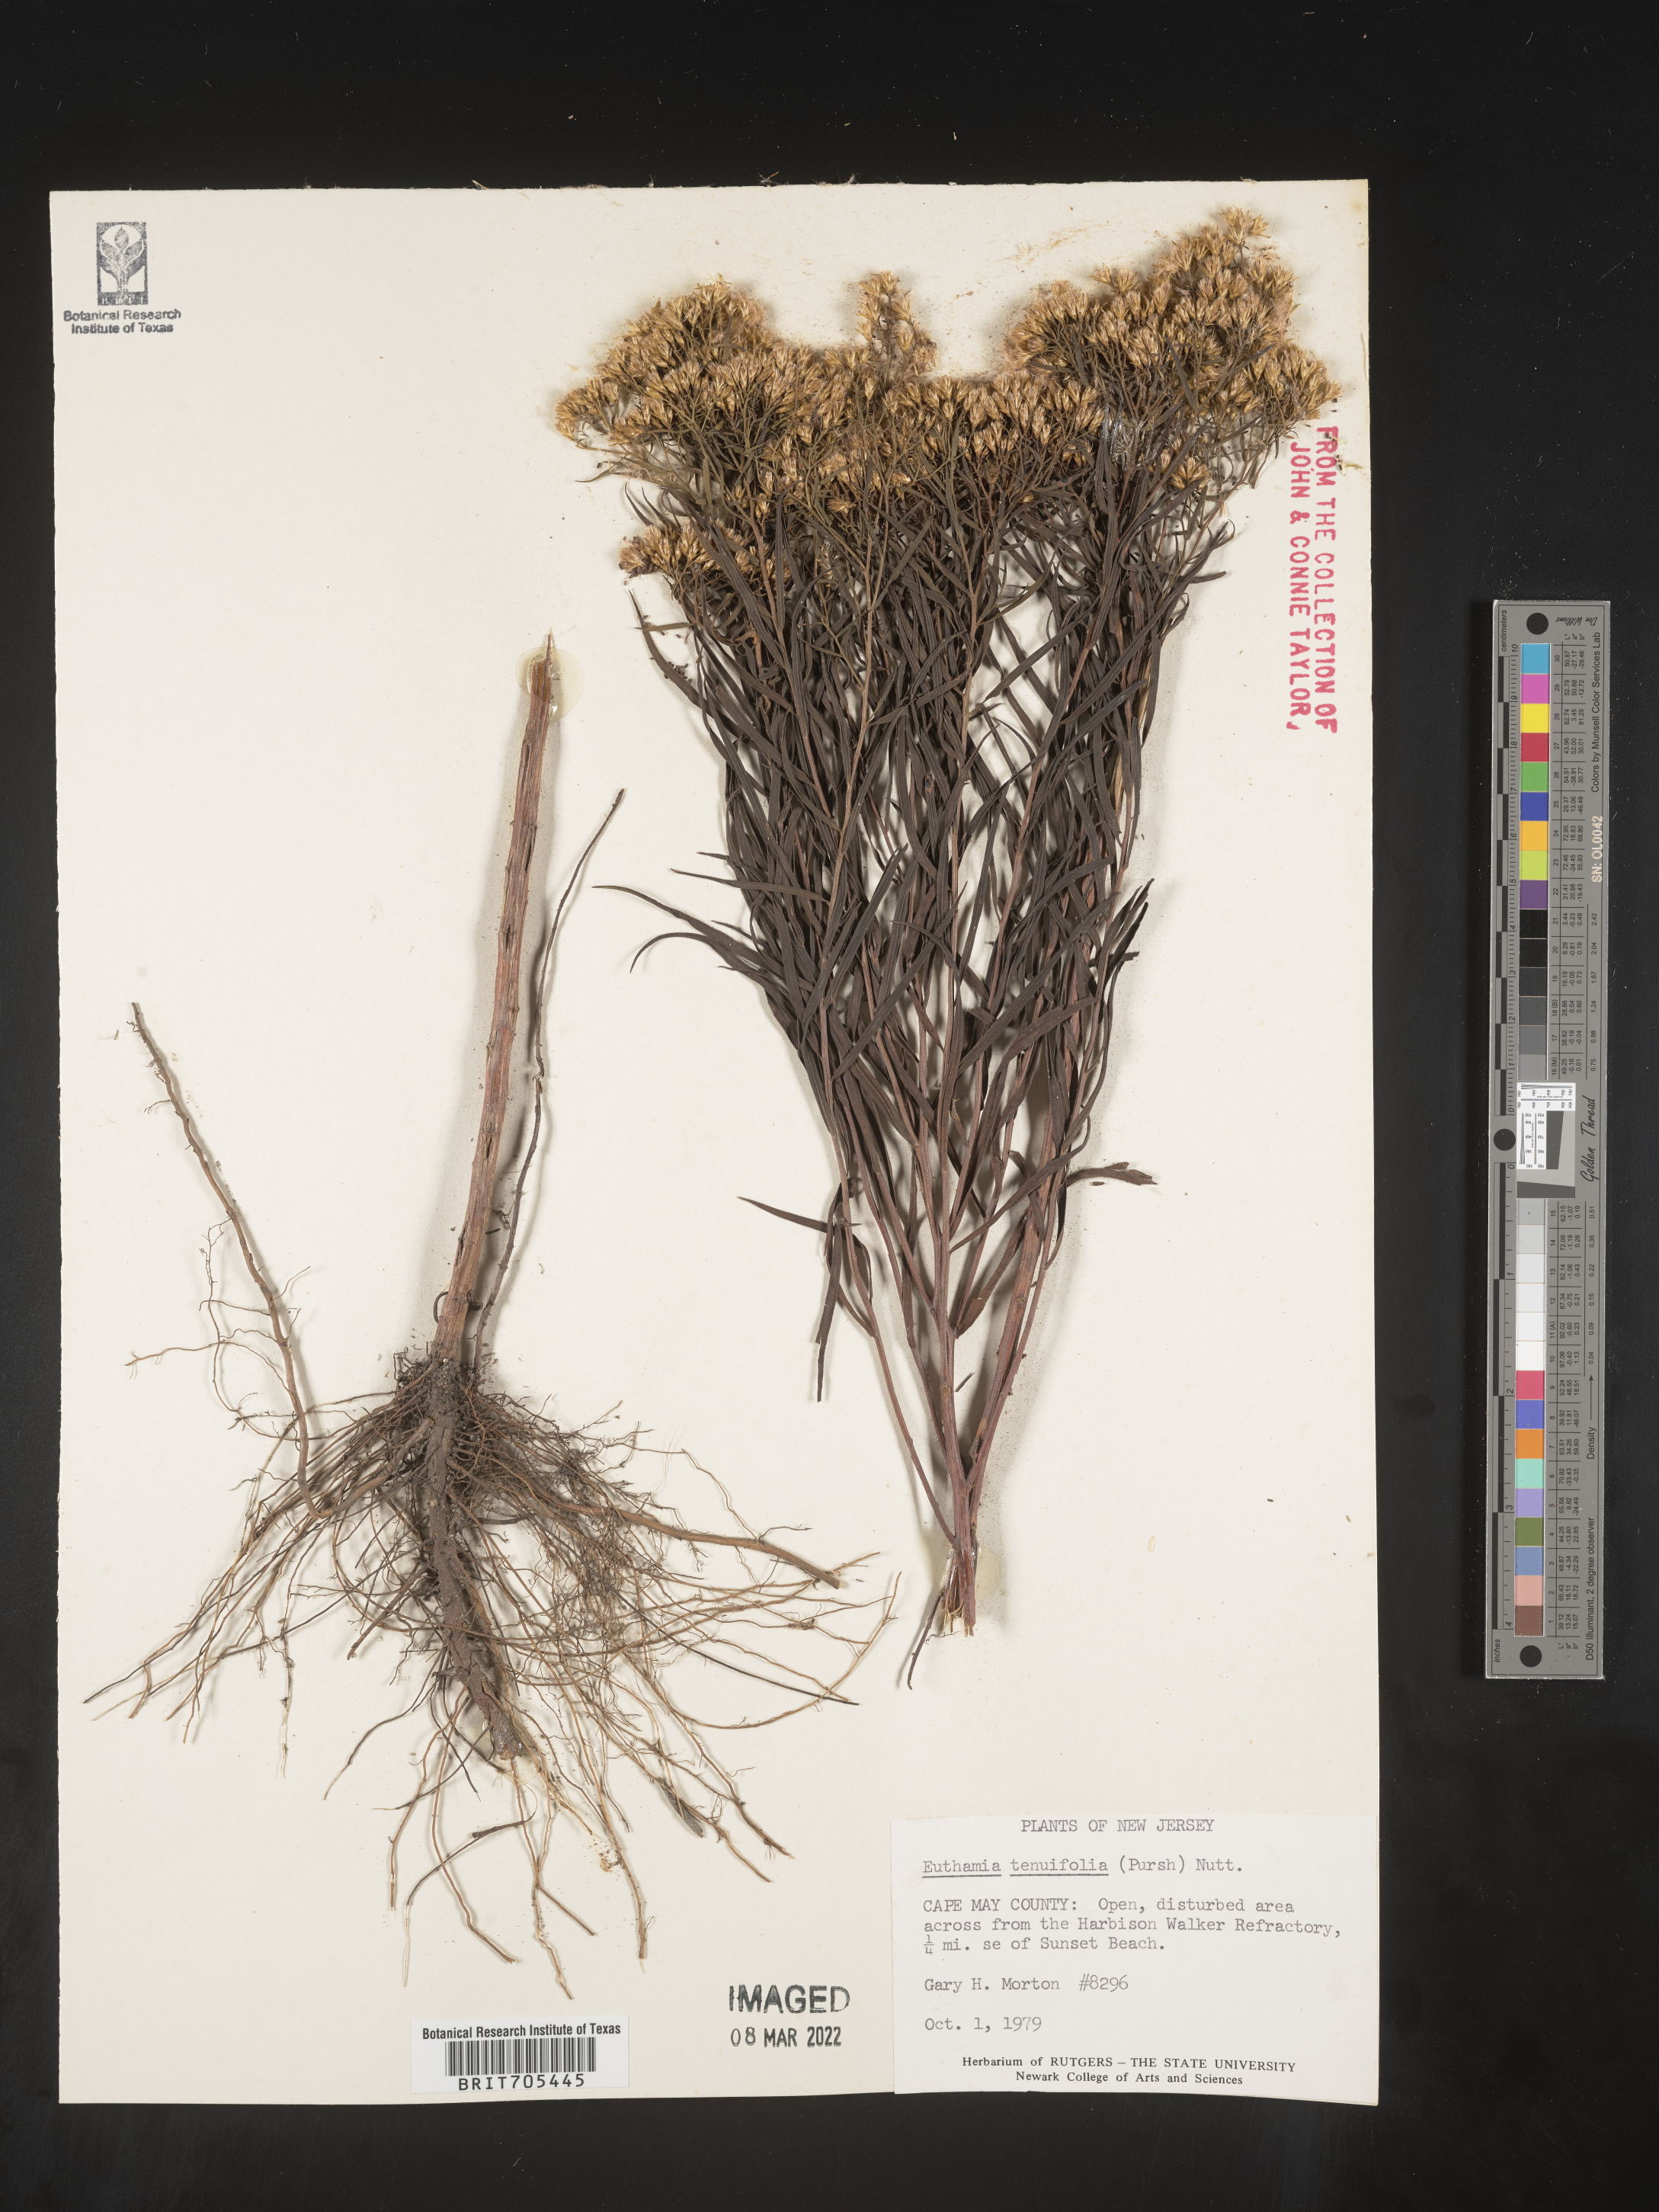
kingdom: Plantae
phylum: Tracheophyta
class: Magnoliopsida
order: Asterales
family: Asteraceae
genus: Euthamia
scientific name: Euthamia scabra
